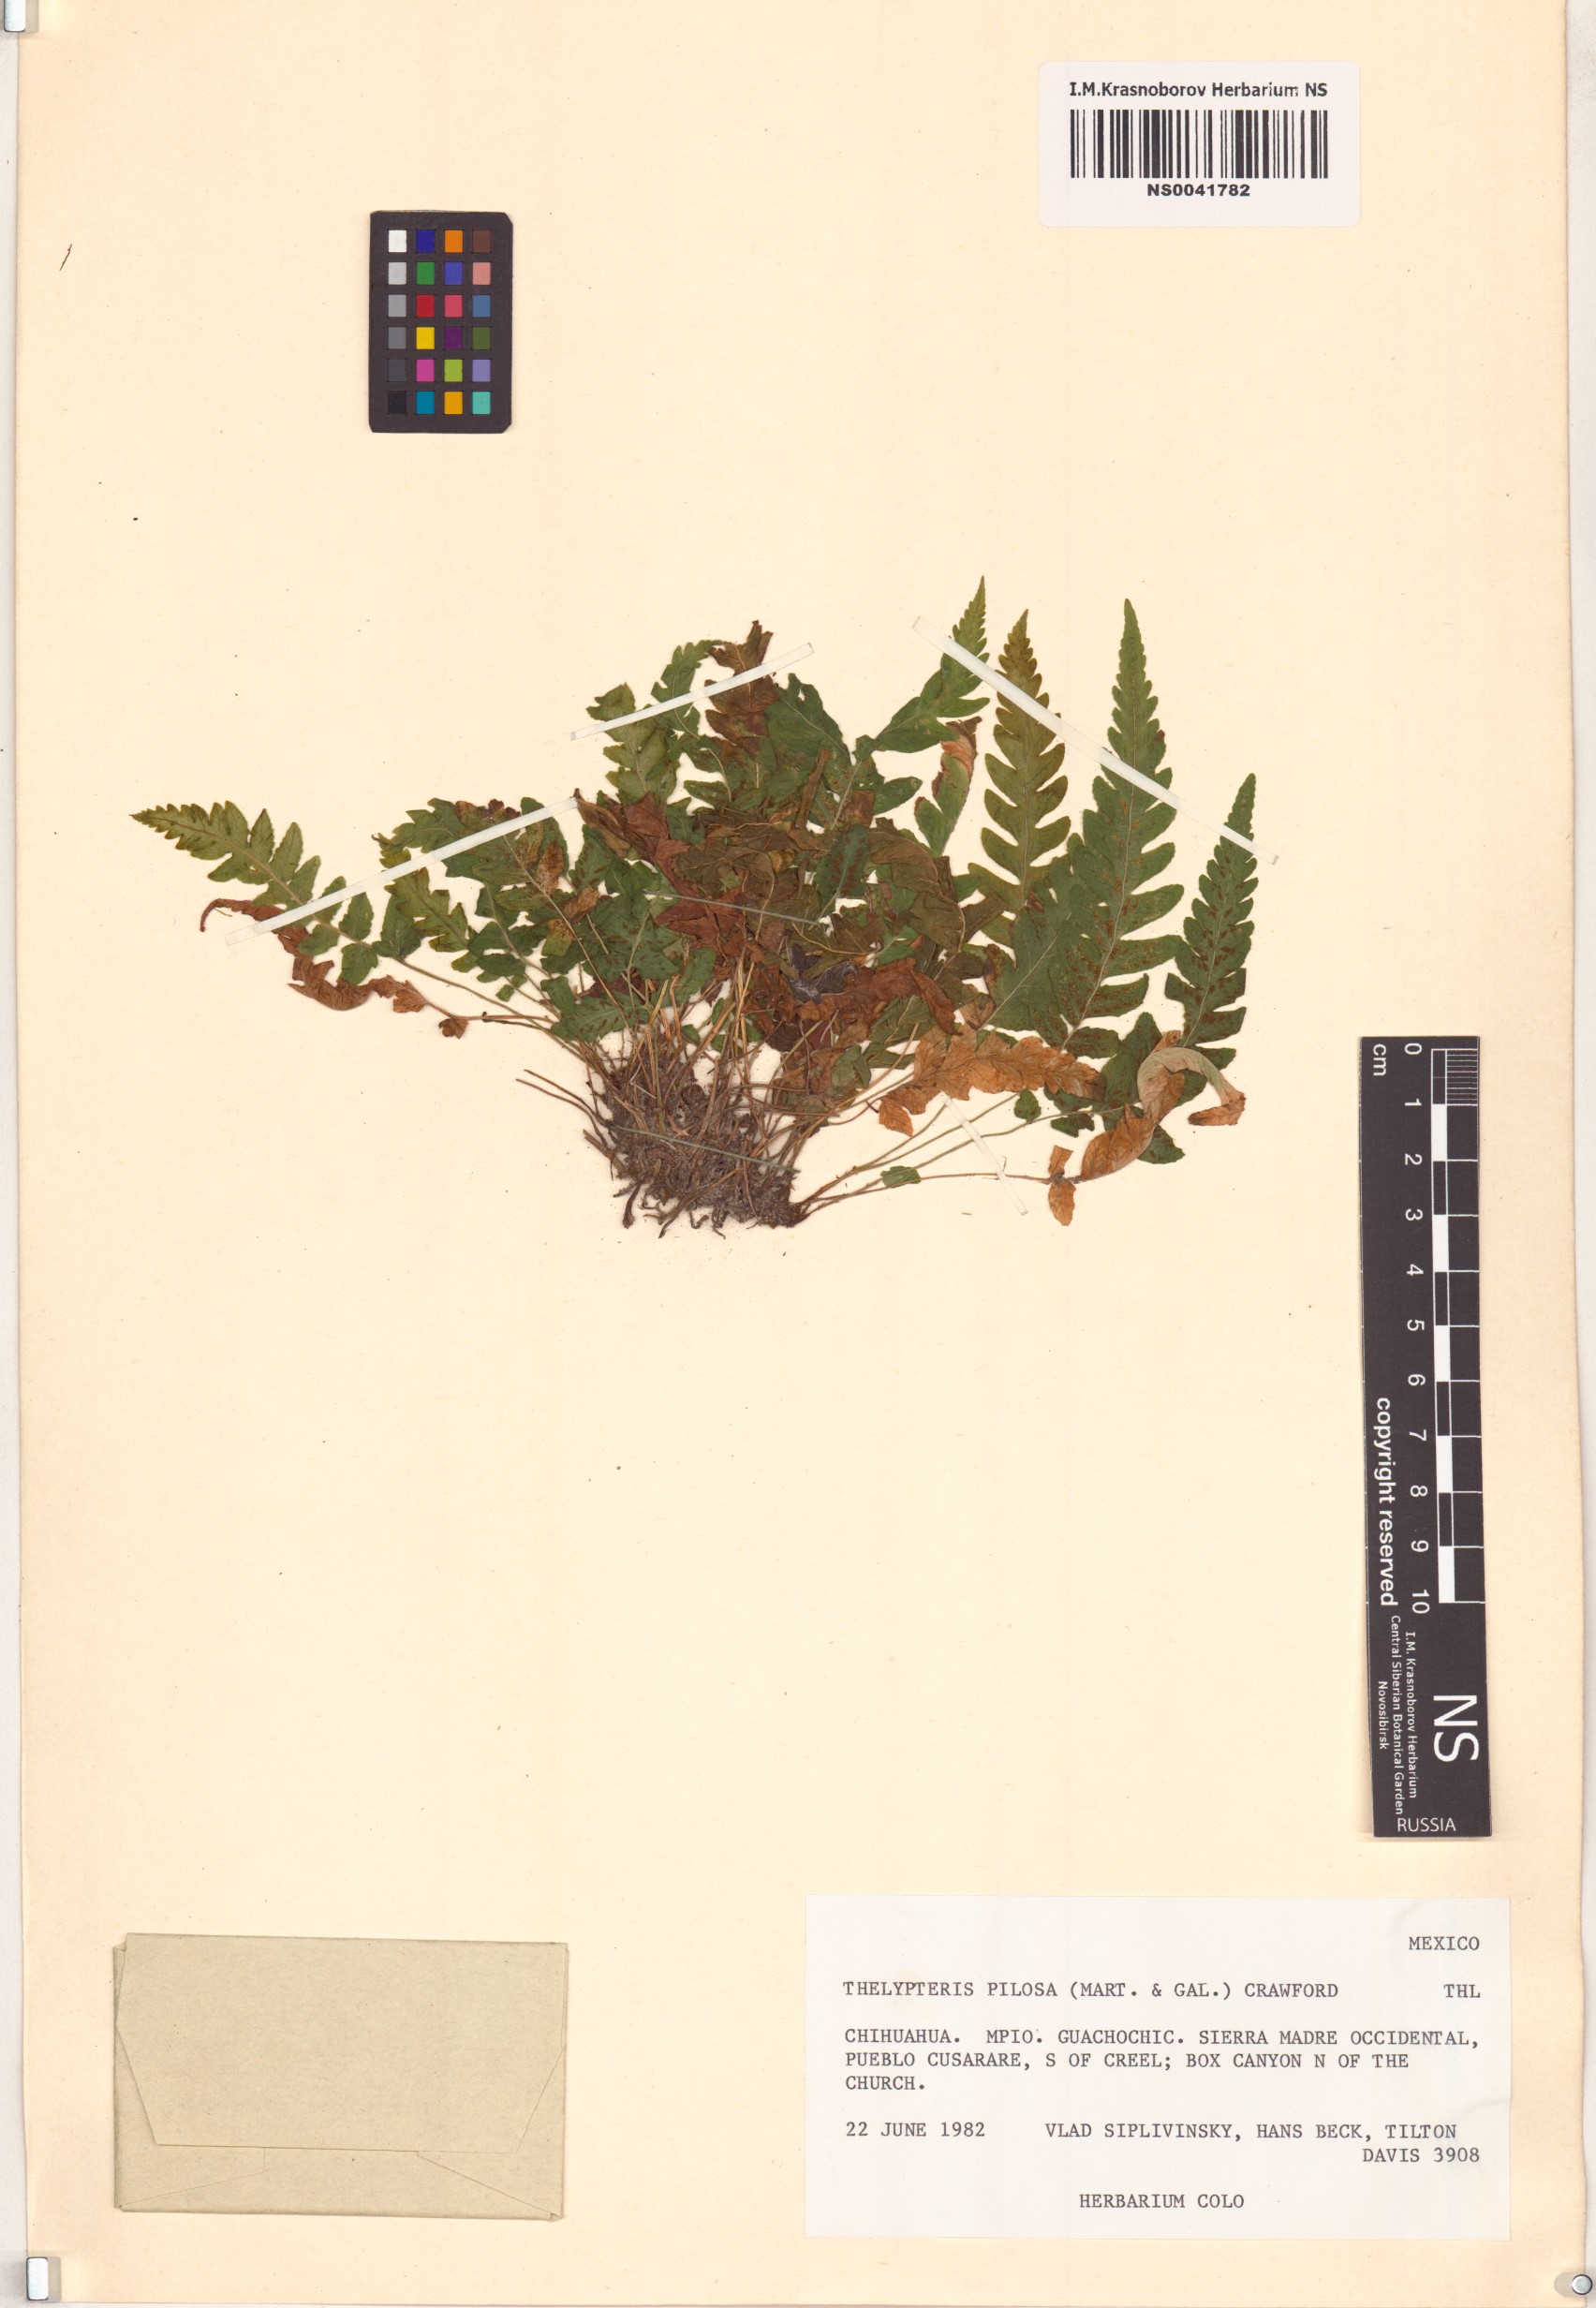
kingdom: Plantae
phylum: Tracheophyta
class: Polypodiopsida
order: Polypodiales
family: Thelypteridaceae
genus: Leptogramma
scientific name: Leptogramma pilosa
